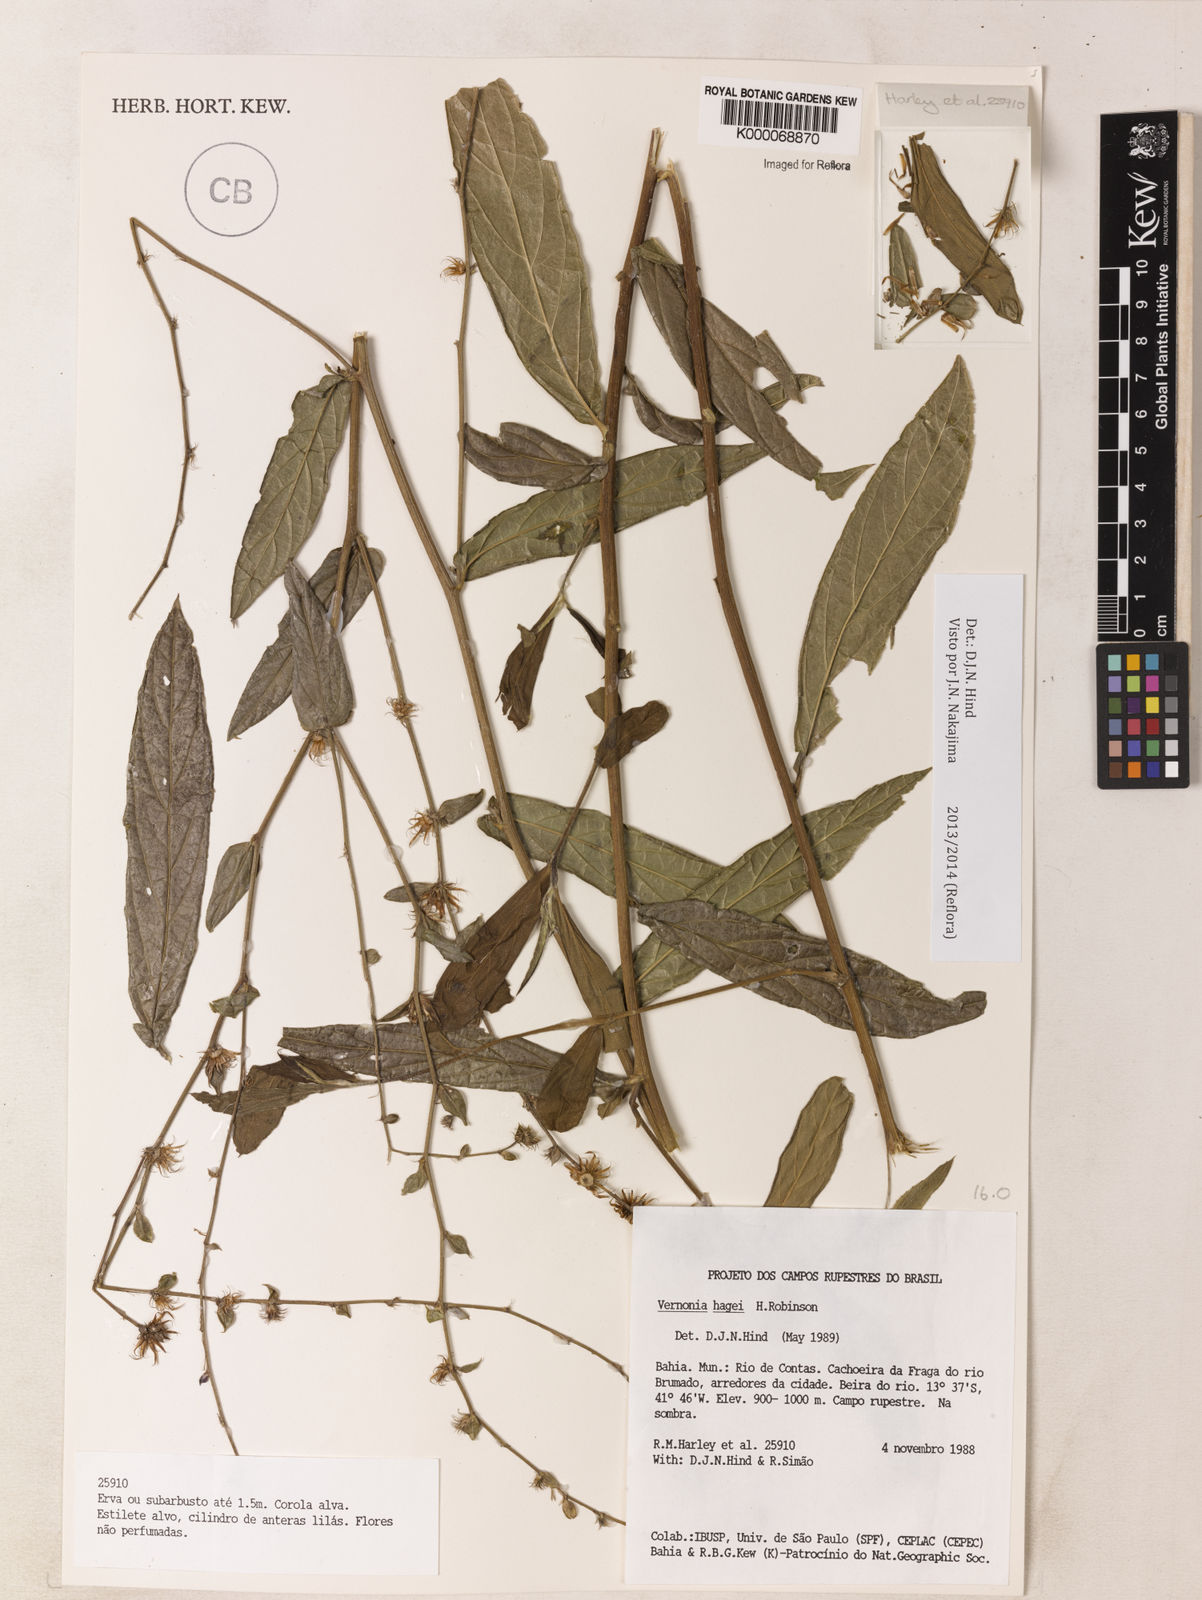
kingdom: Plantae
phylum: Tracheophyta
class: Magnoliopsida
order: Asterales
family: Asteraceae
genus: Lepidaploa
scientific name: Lepidaploa hagei
